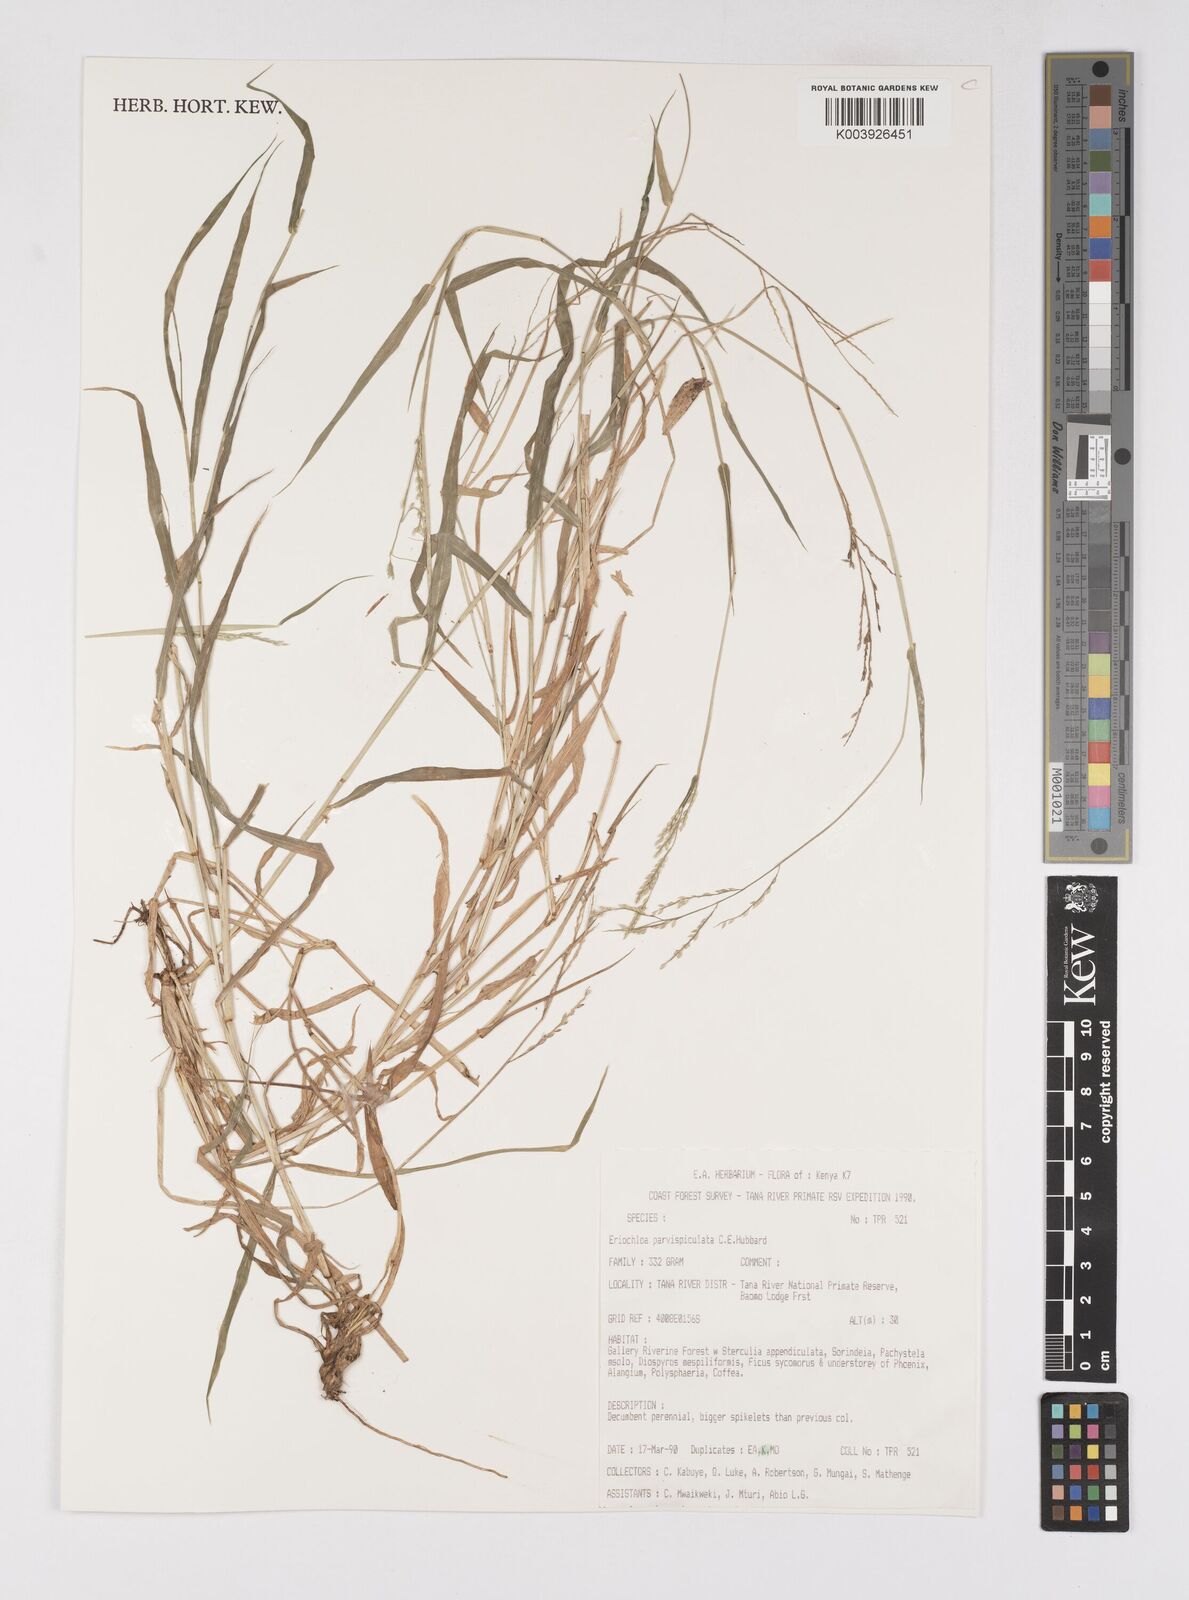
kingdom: Plantae
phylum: Tracheophyta
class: Liliopsida
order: Poales
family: Poaceae
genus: Eriochloa
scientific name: Eriochloa parvispiculata
